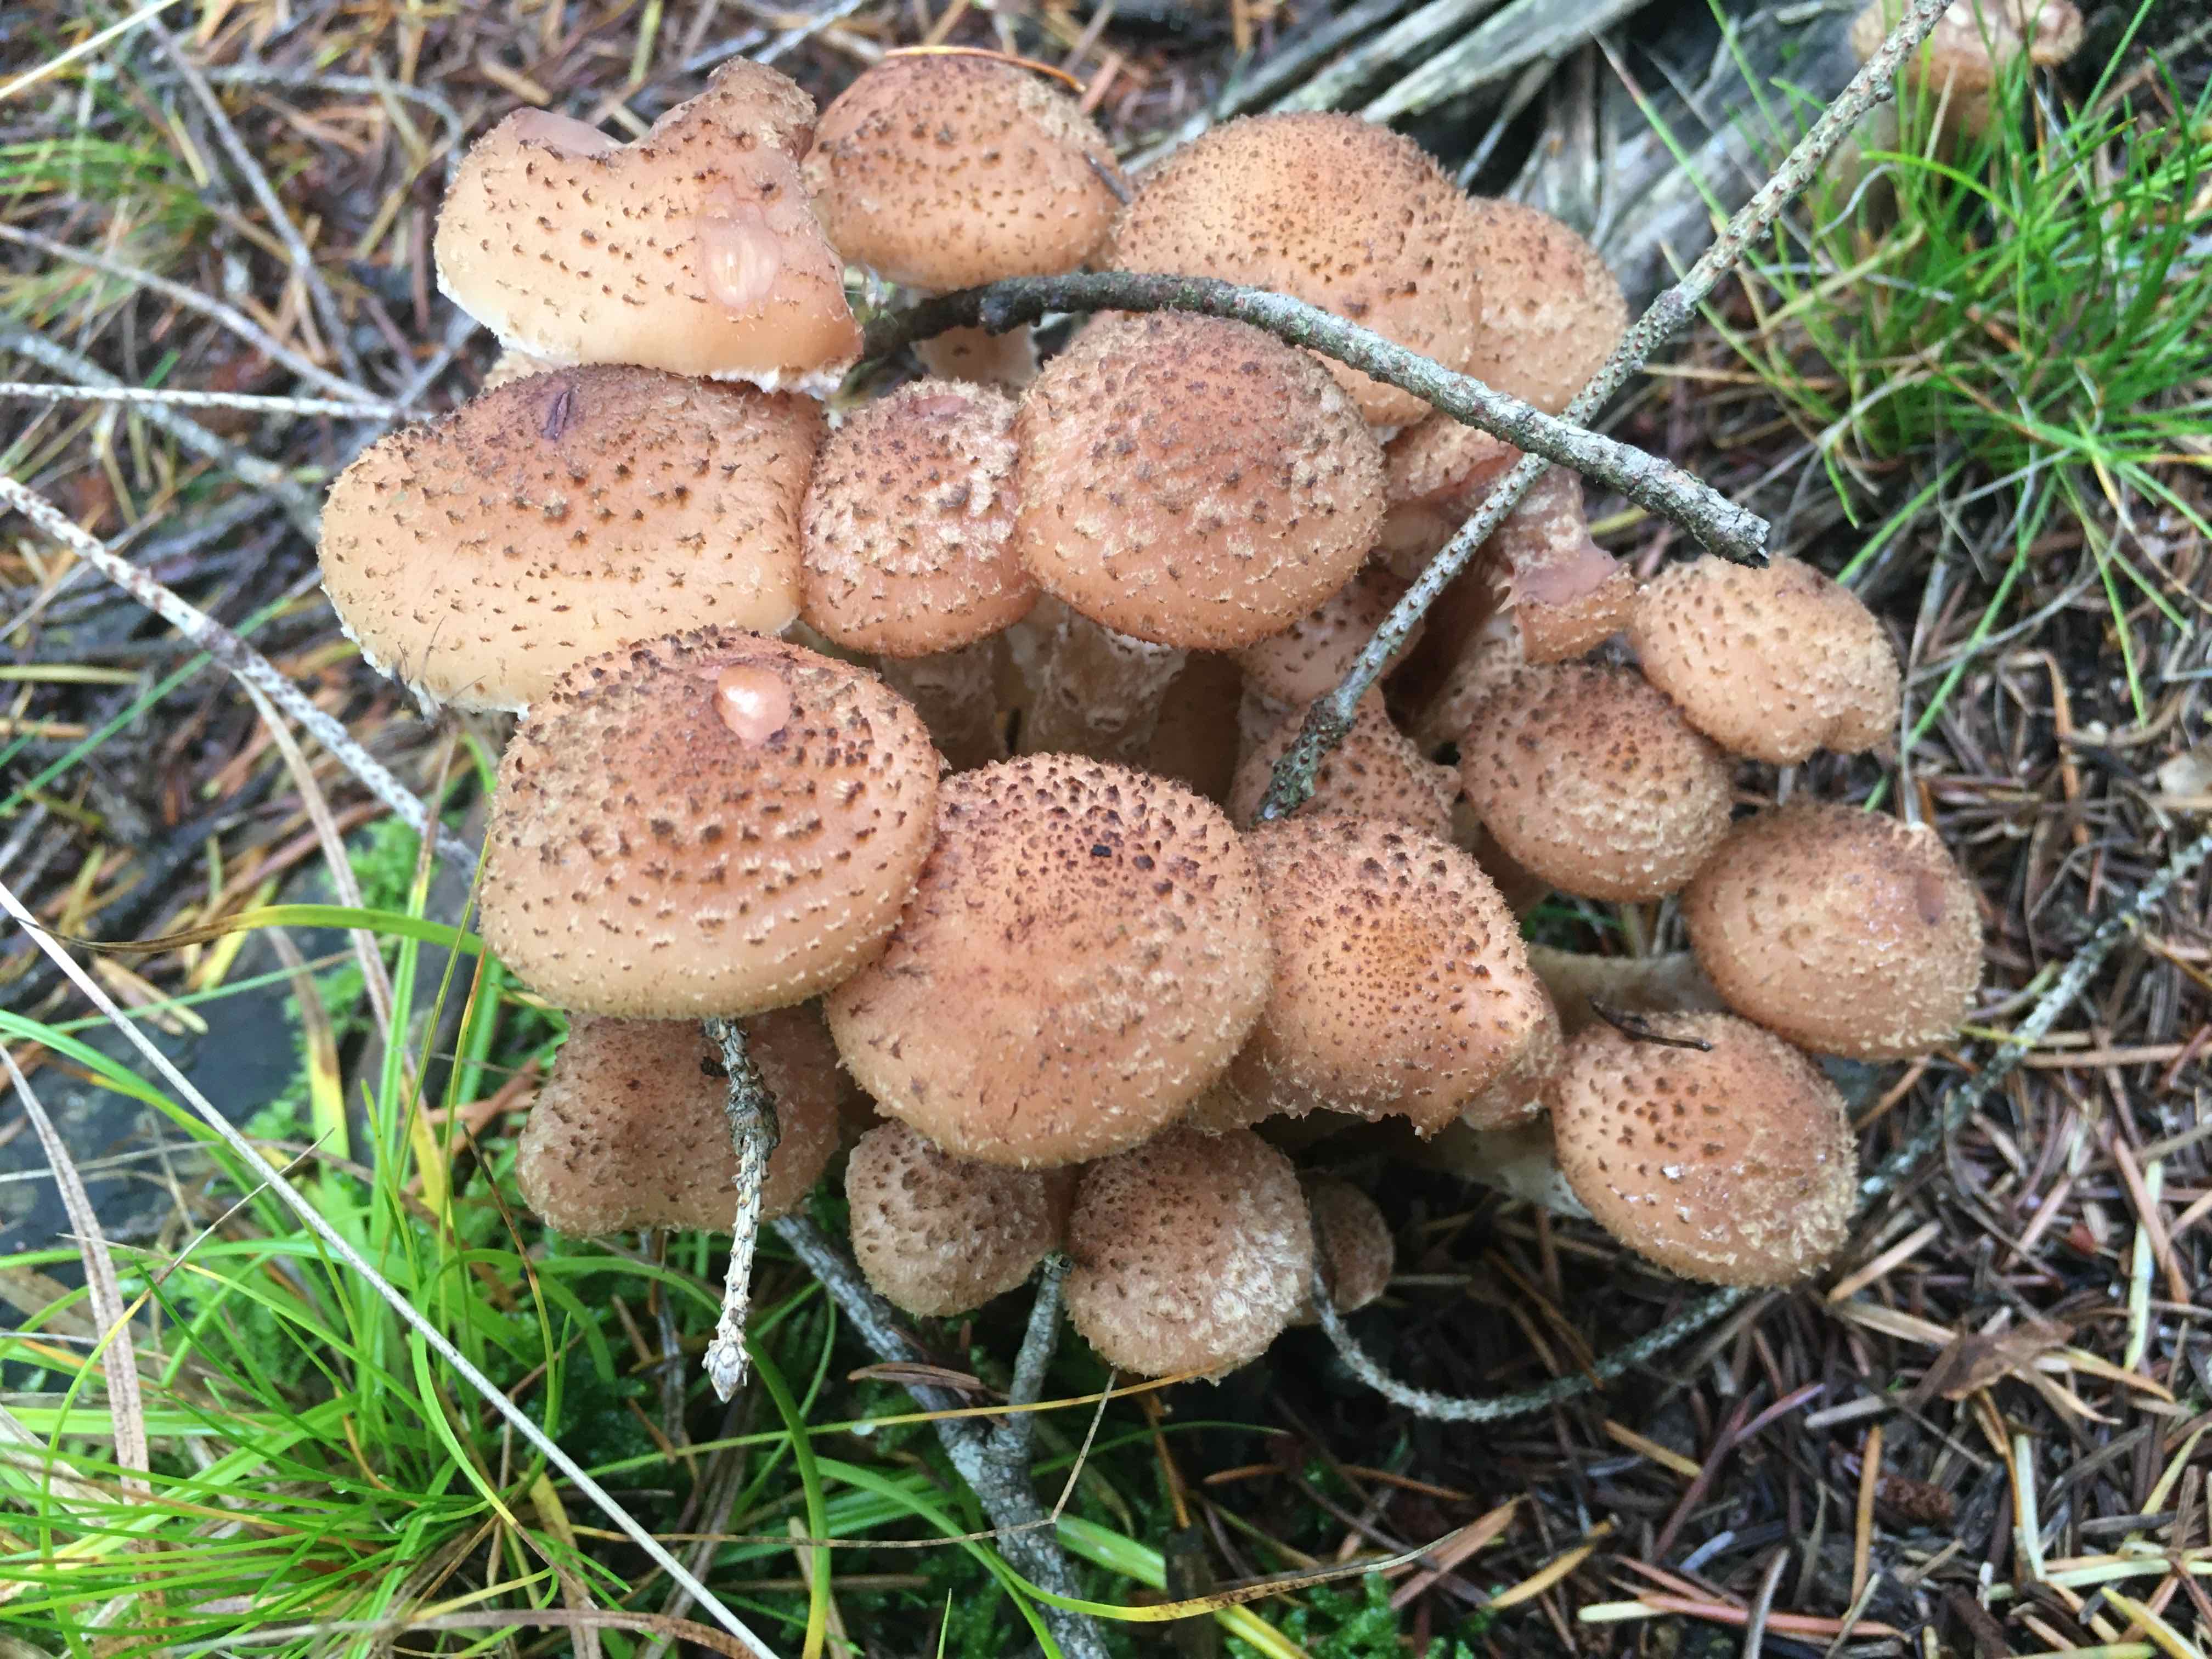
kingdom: Fungi
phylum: Basidiomycota
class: Agaricomycetes
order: Agaricales
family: Physalacriaceae
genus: Armillaria
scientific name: Armillaria ostoyae
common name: mørk honningsvamp
